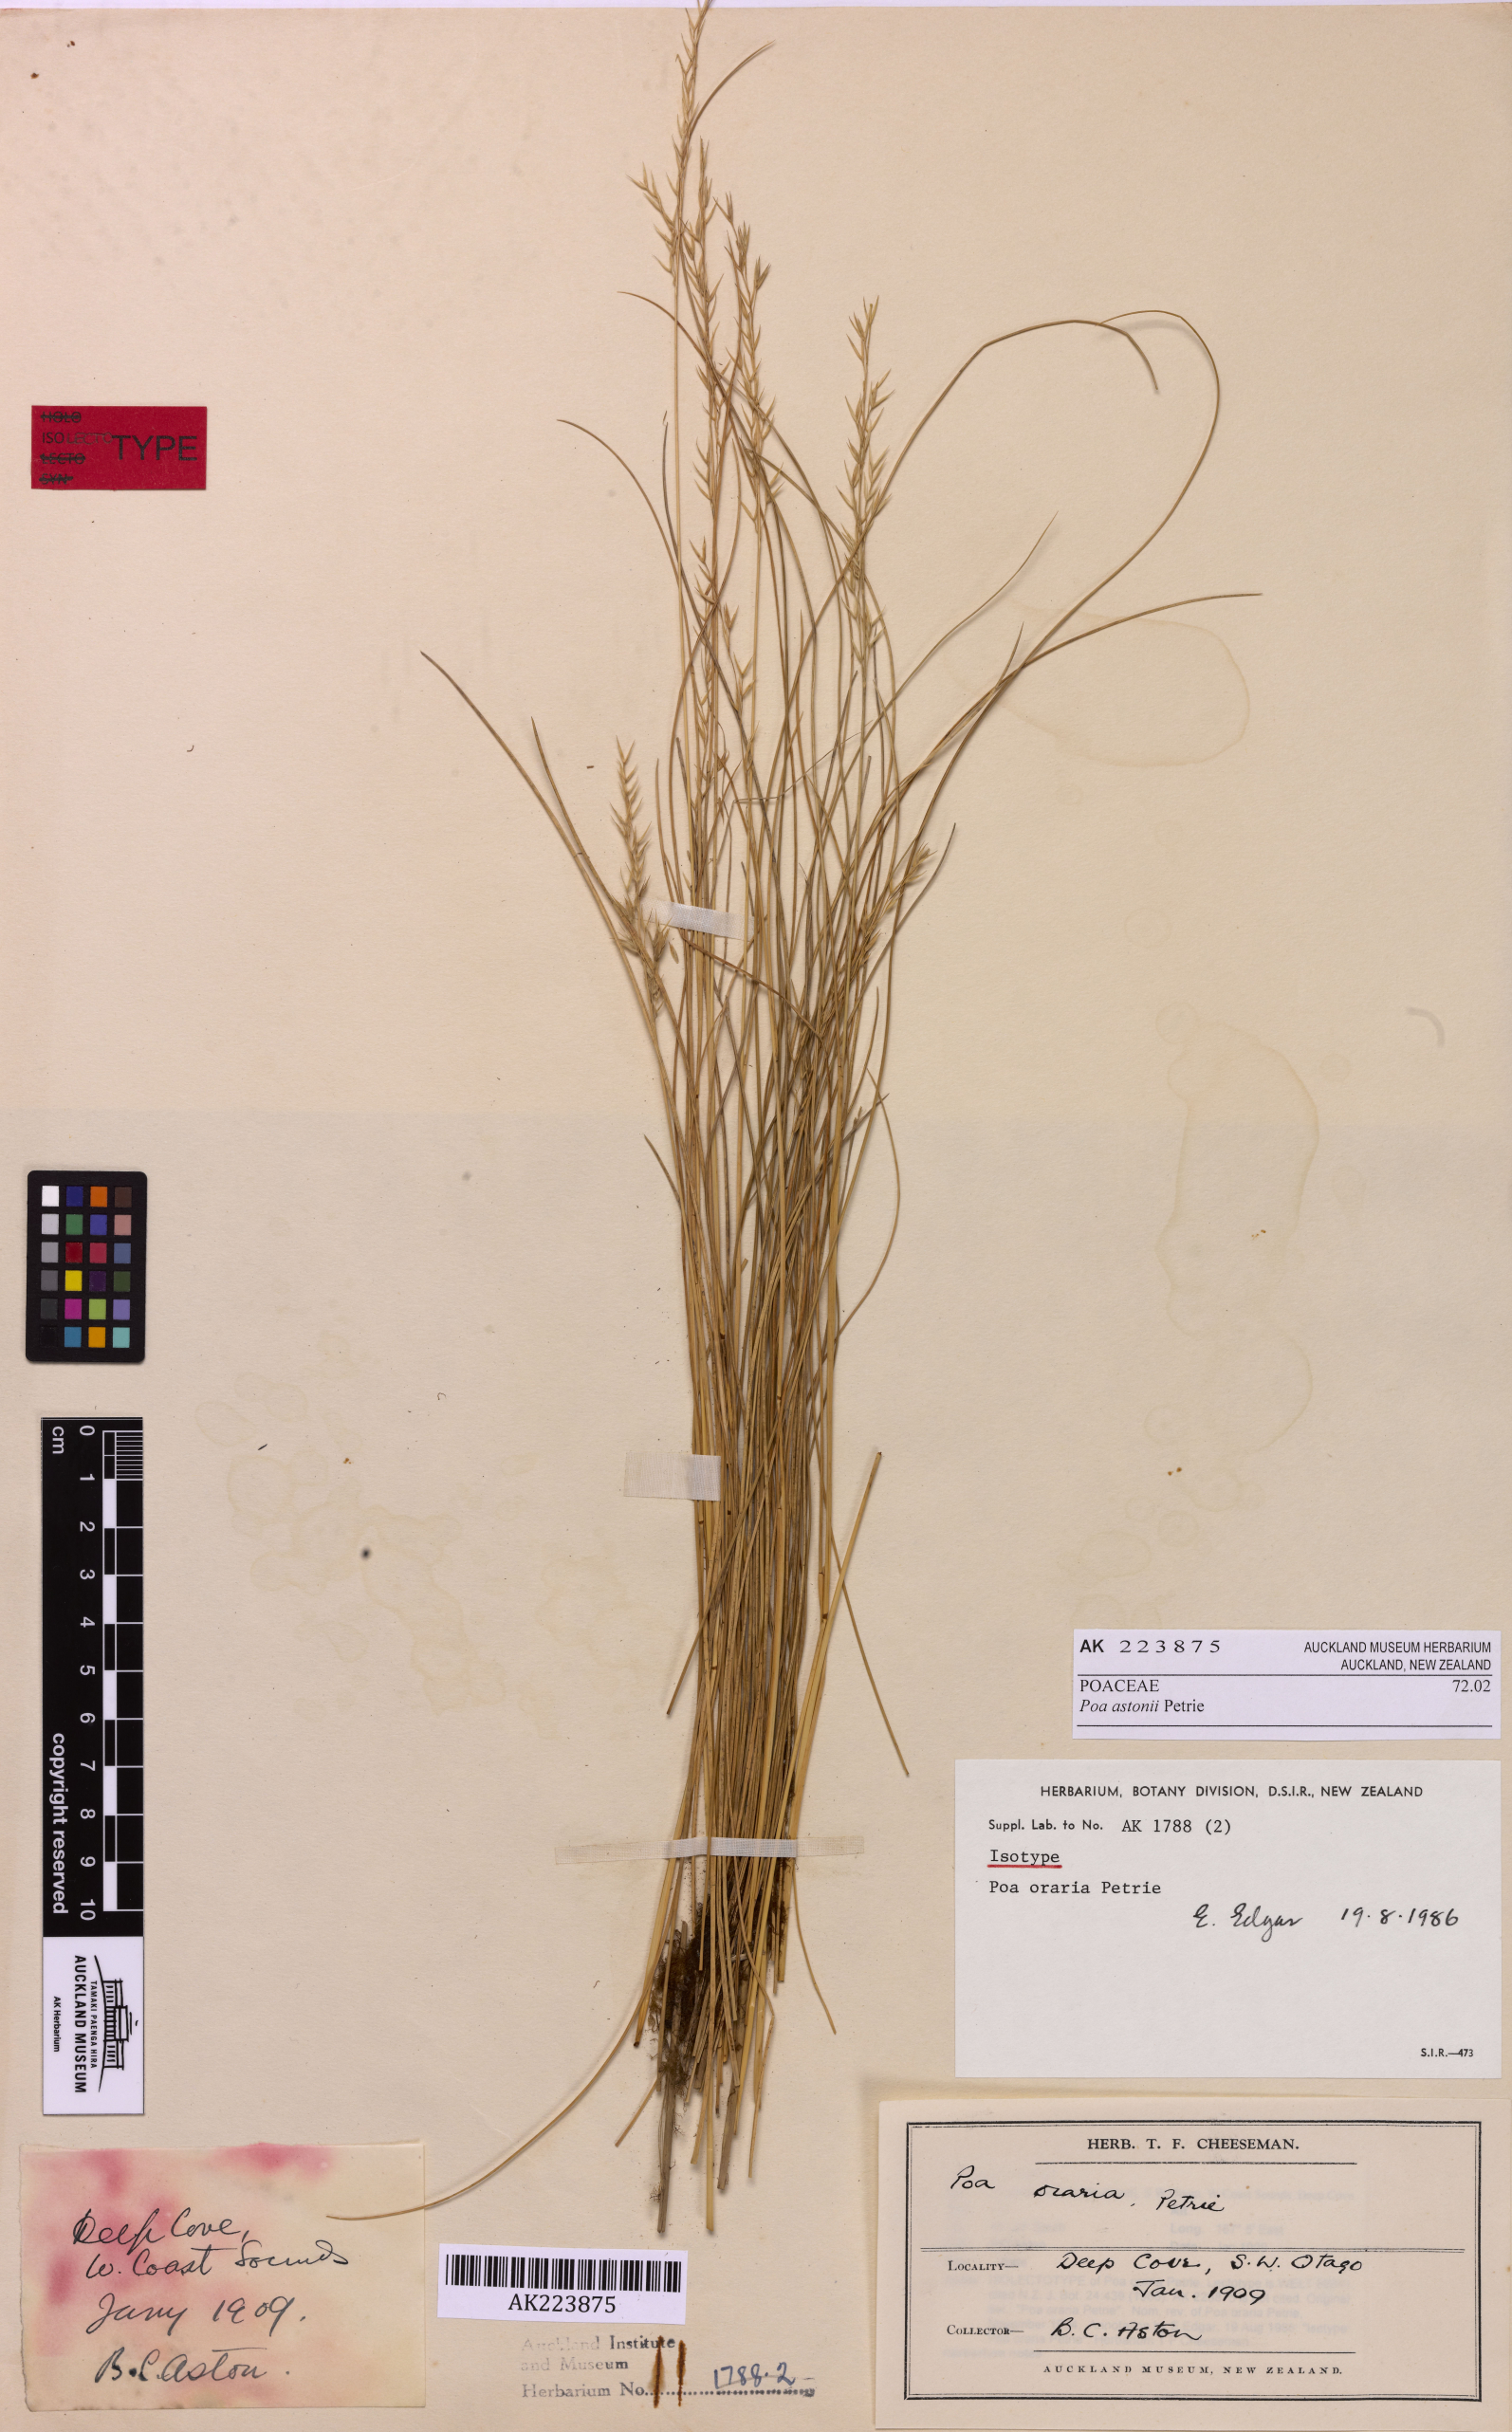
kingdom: Plantae
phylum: Tracheophyta
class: Liliopsida
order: Poales
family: Poaceae
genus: Poa
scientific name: Poa astonii
